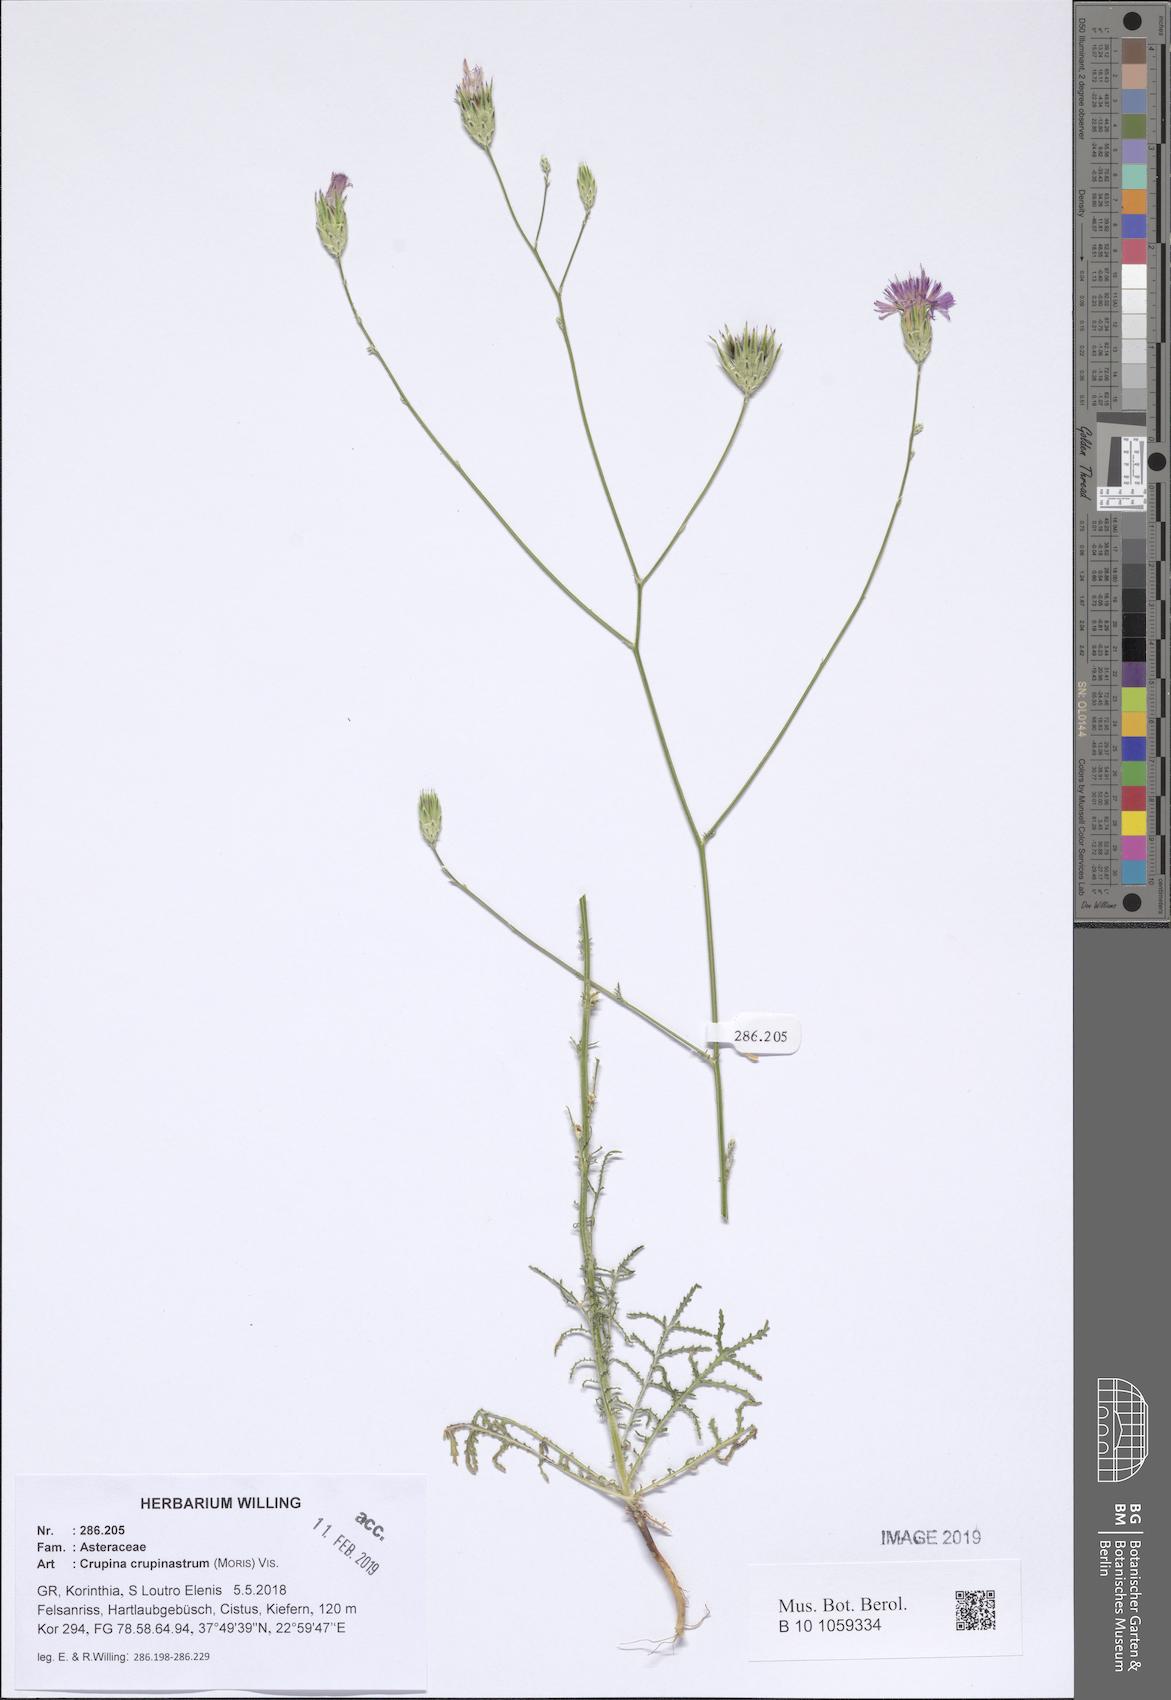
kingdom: Plantae
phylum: Tracheophyta
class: Magnoliopsida
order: Asterales
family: Asteraceae
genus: Crupina
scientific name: Crupina crupinastrum
